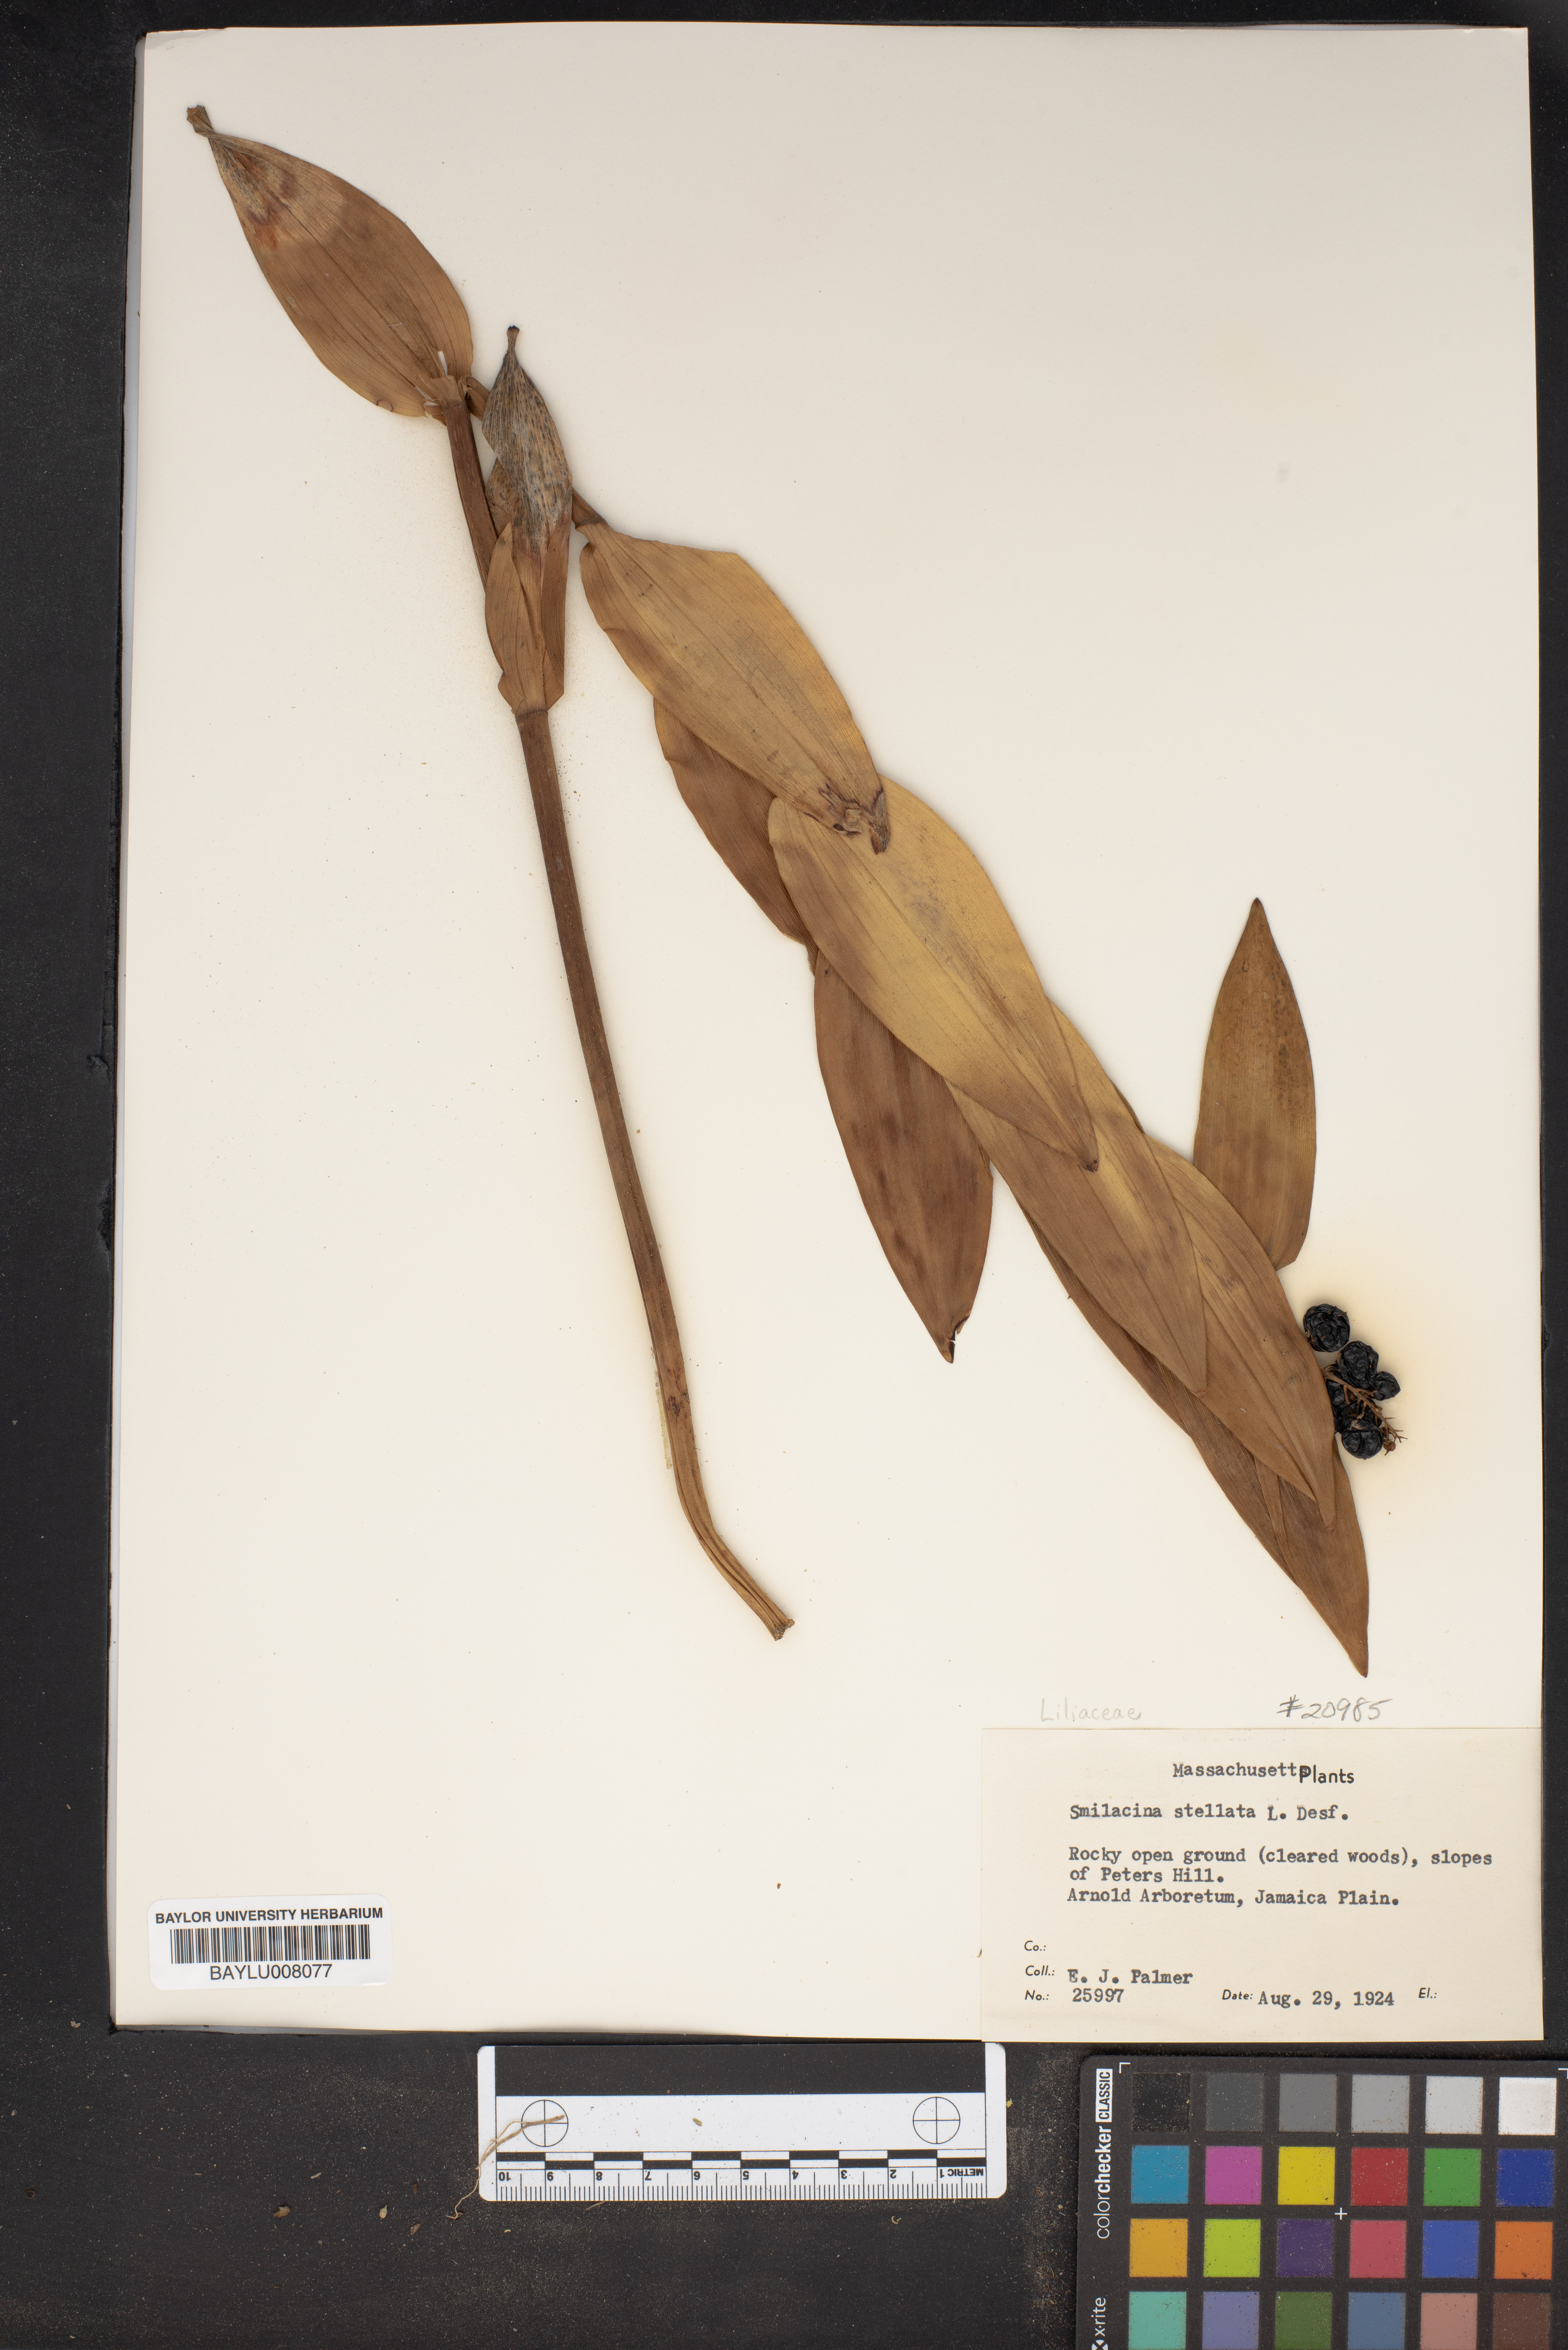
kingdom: Plantae
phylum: Tracheophyta
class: Liliopsida
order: Asparagales
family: Asparagaceae
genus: Maianthemum
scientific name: Maianthemum stellatum
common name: Little false solomon's seal
